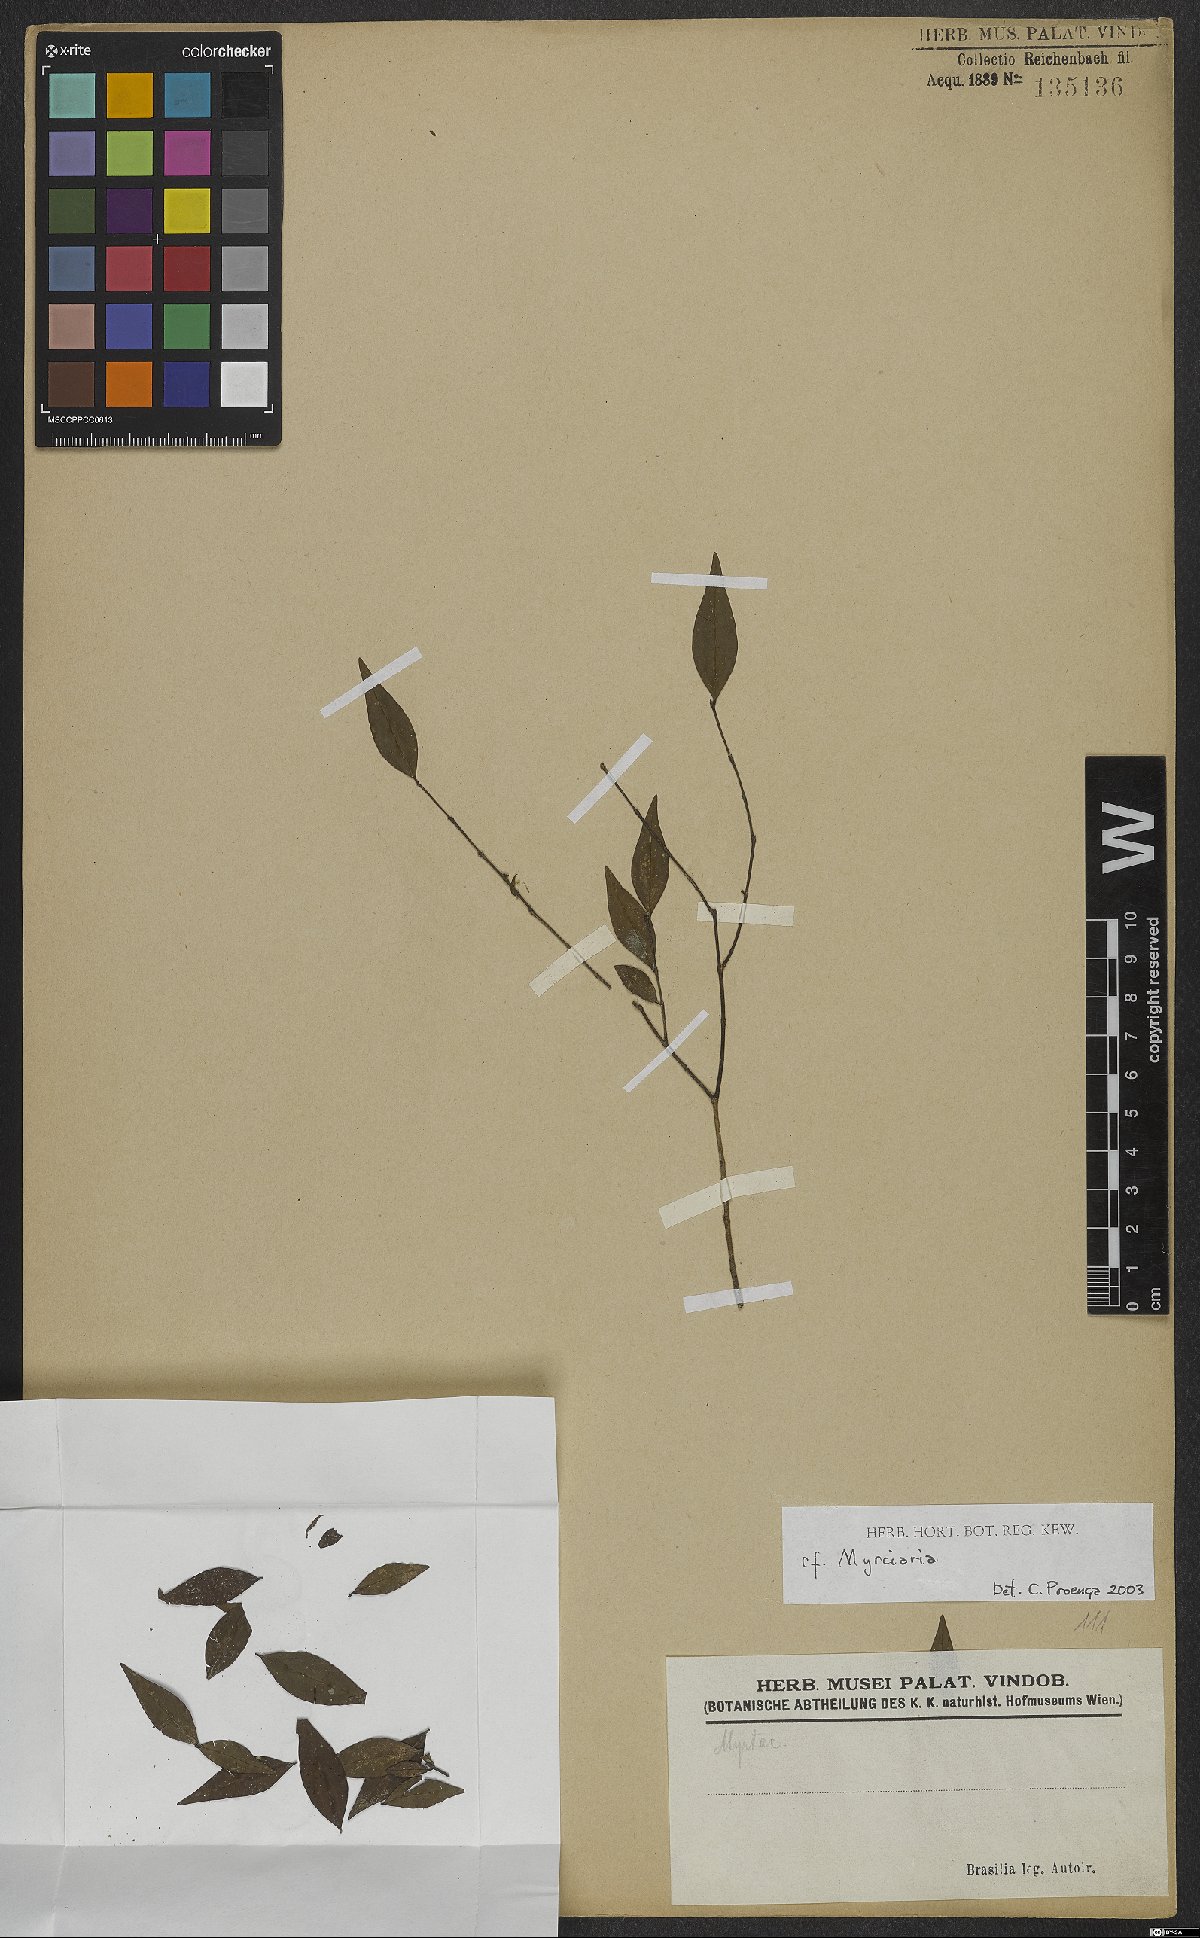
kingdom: Plantae
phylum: Tracheophyta
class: Magnoliopsida
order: Myrtales
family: Myrtaceae
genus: Myrciaria
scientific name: Myrciaria
